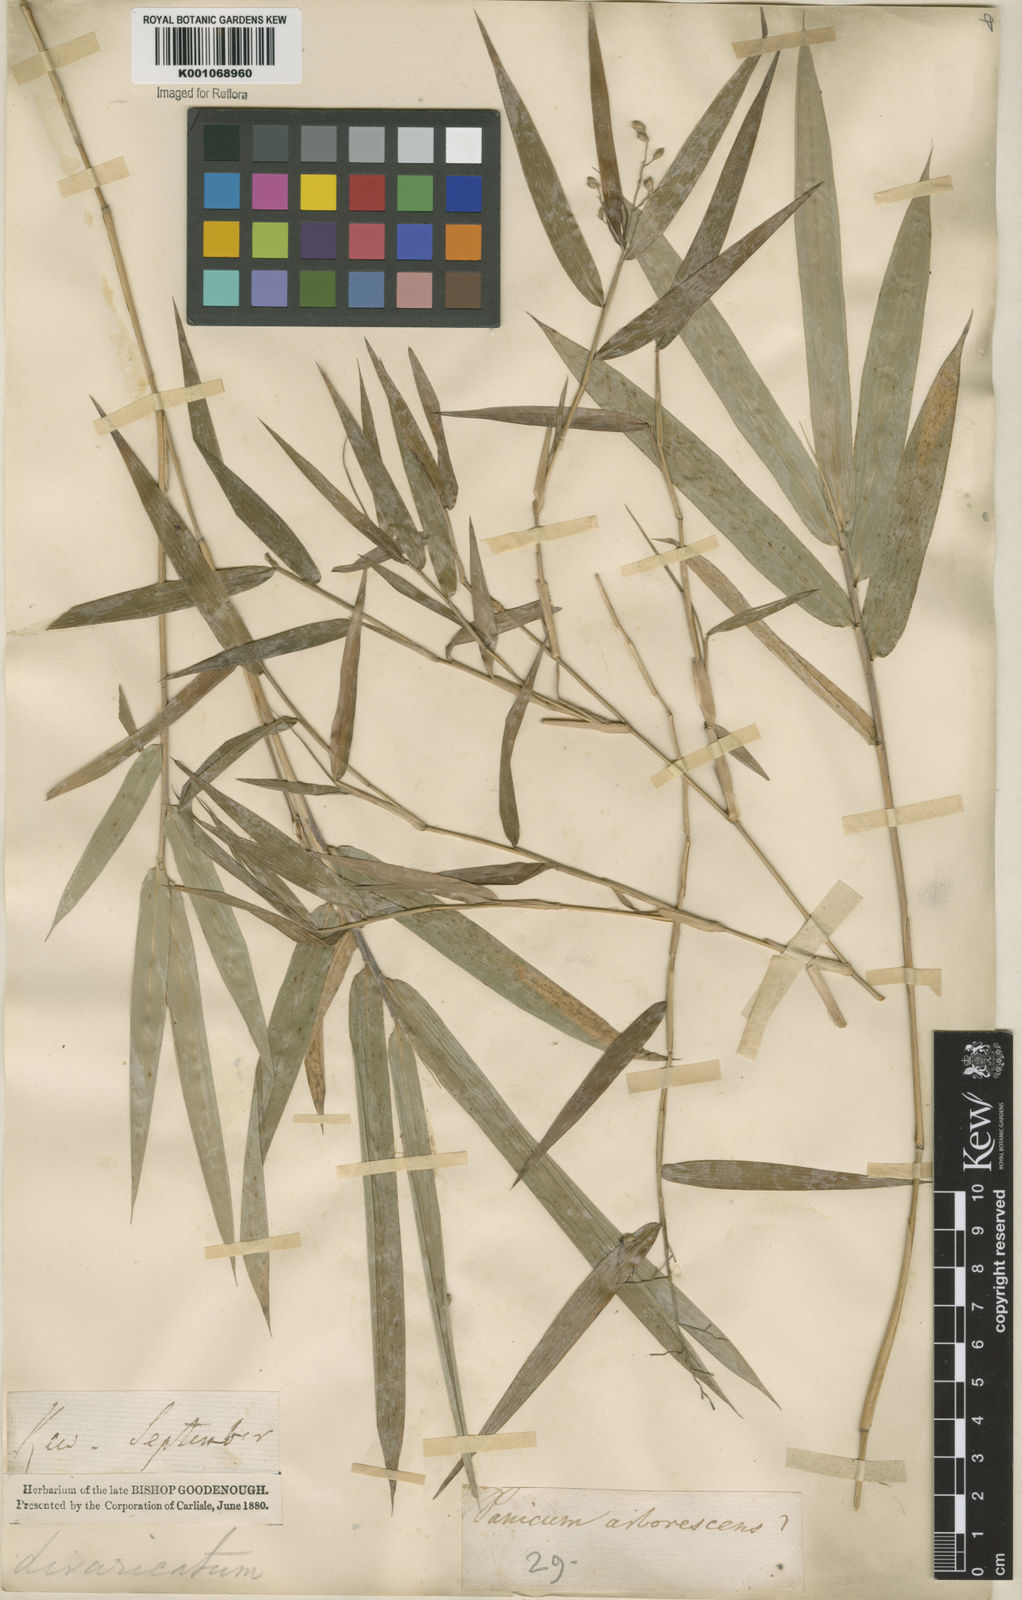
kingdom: Plantae
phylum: Tracheophyta
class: Liliopsida
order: Poales
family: Poaceae
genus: Lasiacis
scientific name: Lasiacis divaricata
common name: Smallcane
